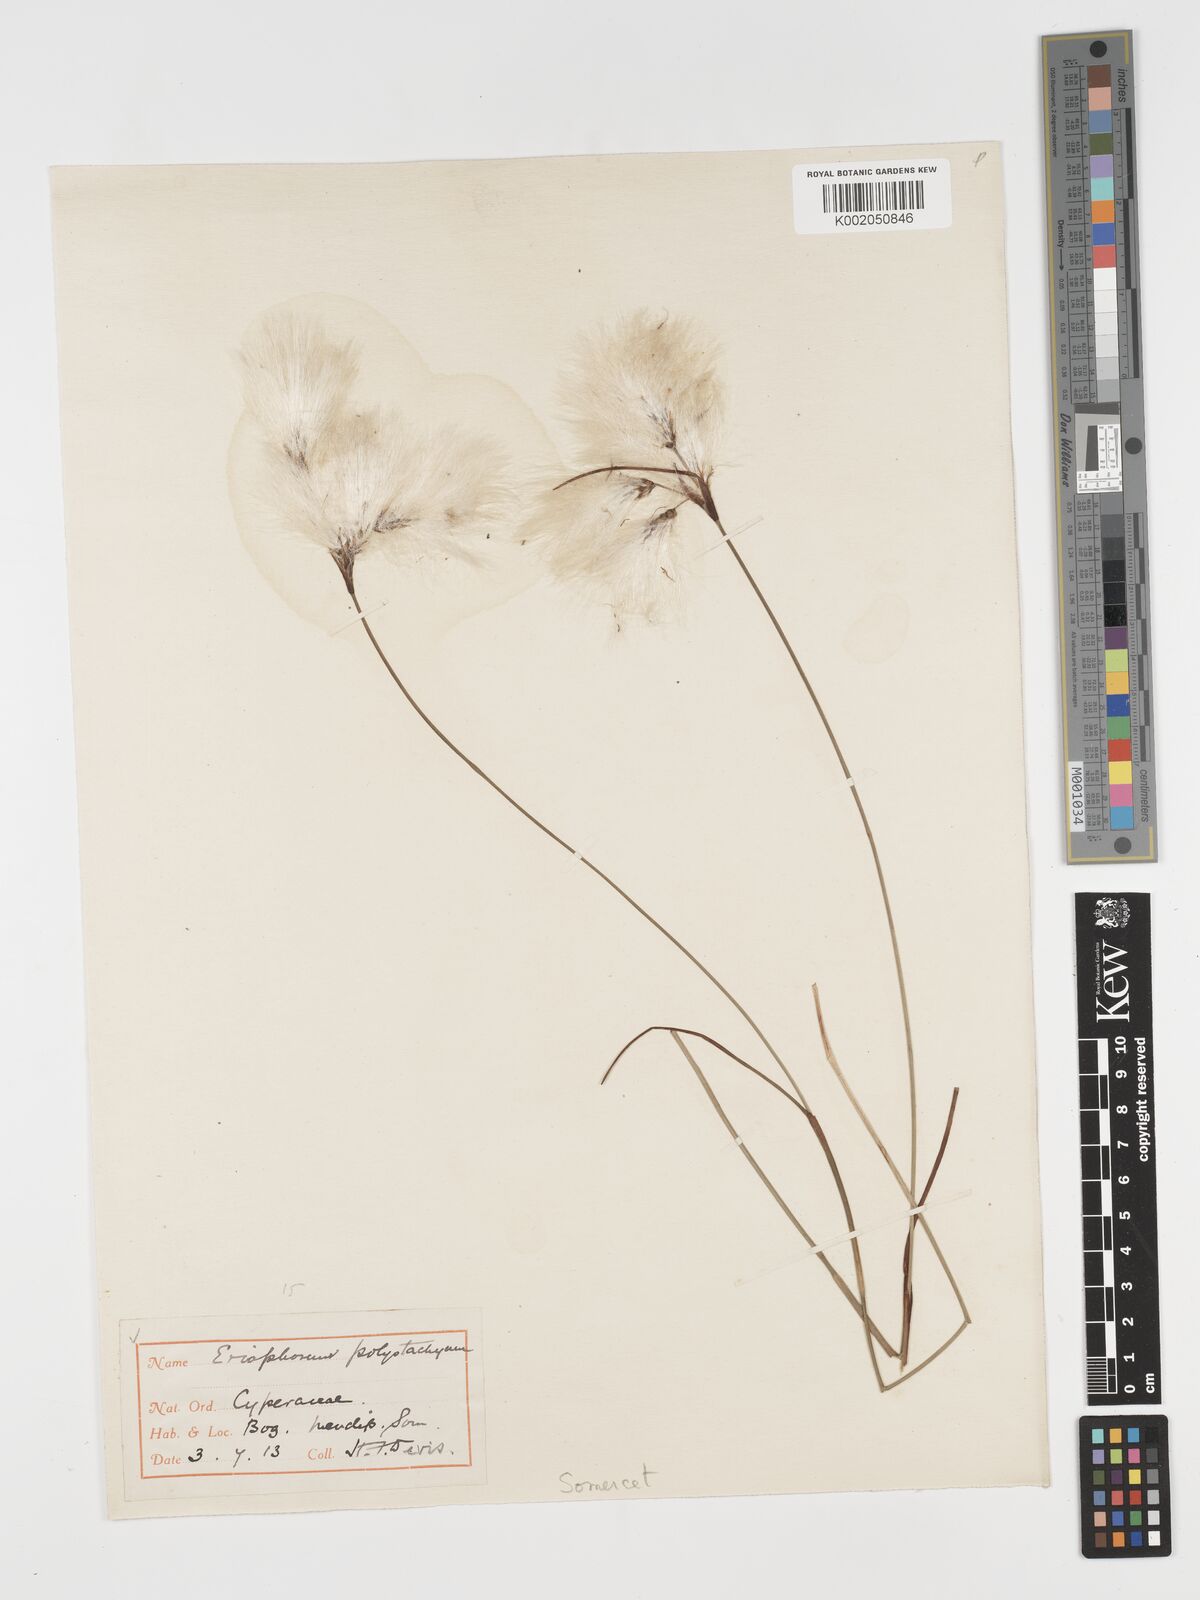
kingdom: Plantae
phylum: Tracheophyta
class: Liliopsida
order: Poales
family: Cyperaceae
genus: Eriophorum
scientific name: Eriophorum angustifolium
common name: Common cottongrass
